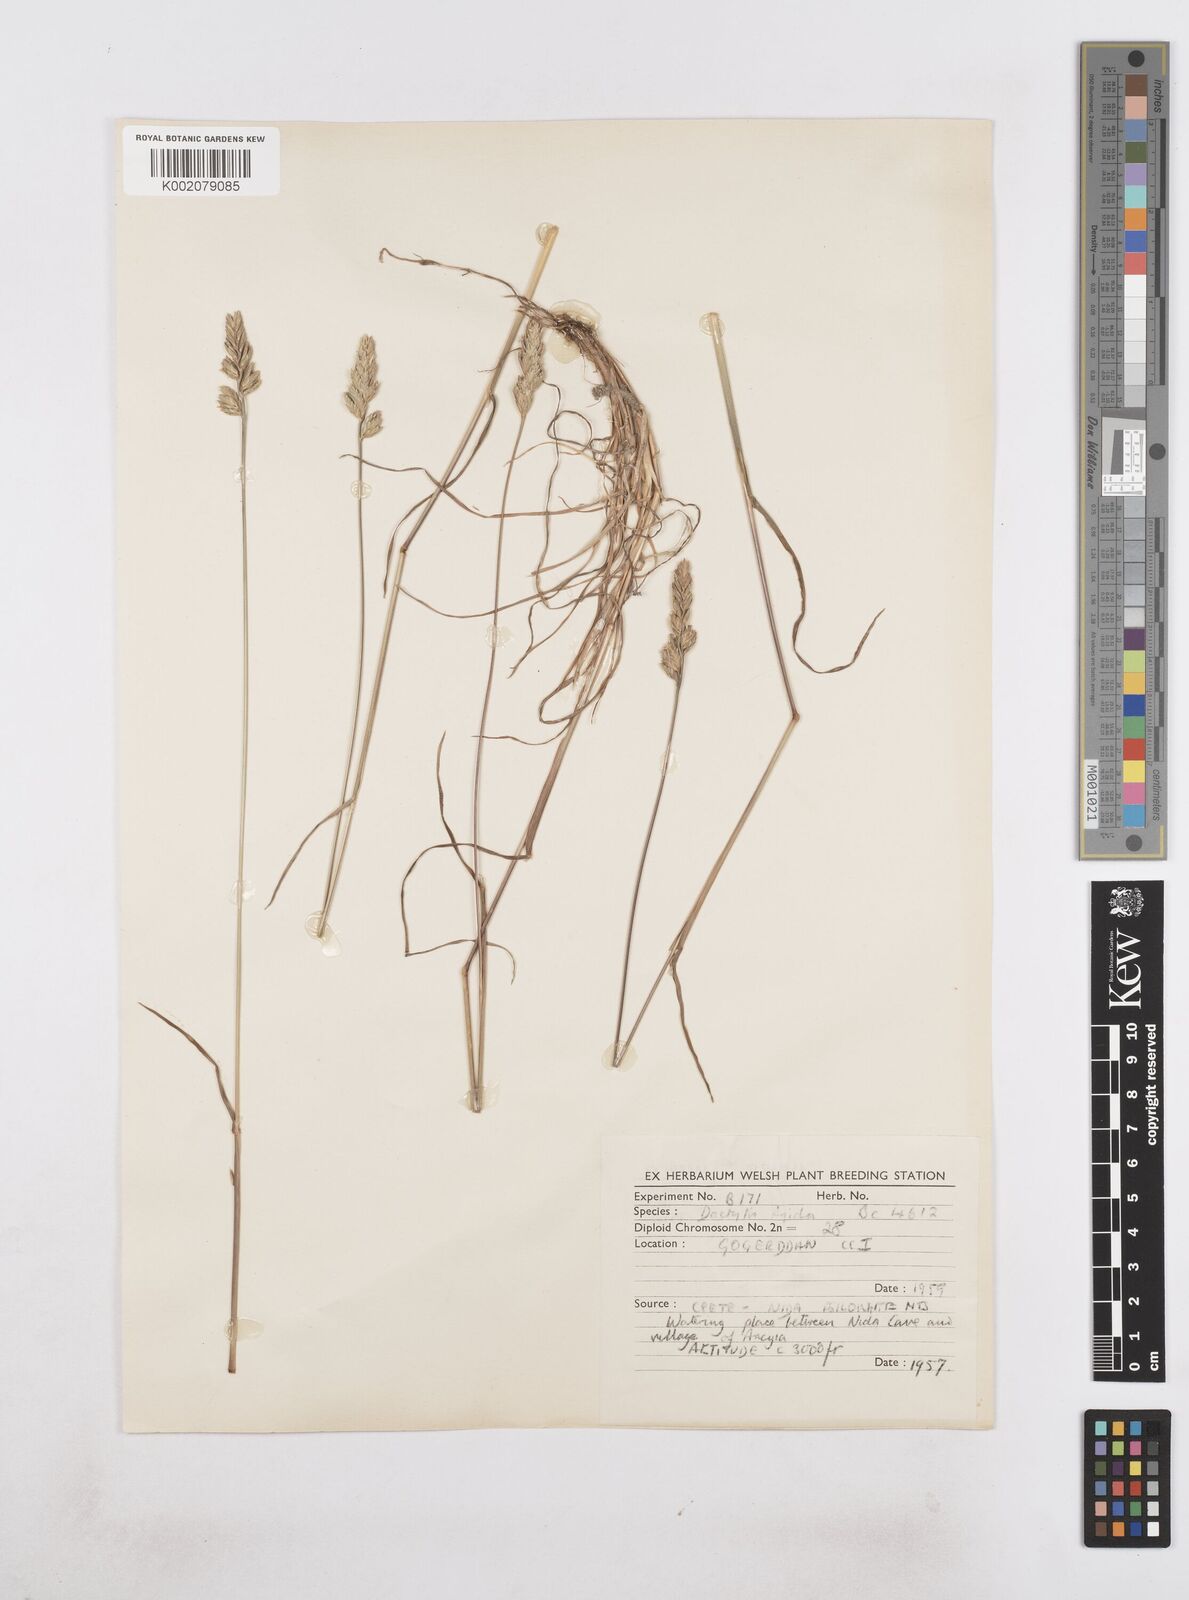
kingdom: Plantae
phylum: Tracheophyta
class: Liliopsida
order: Poales
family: Poaceae
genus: Dactylis
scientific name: Dactylis glomerata
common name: Orchardgrass
